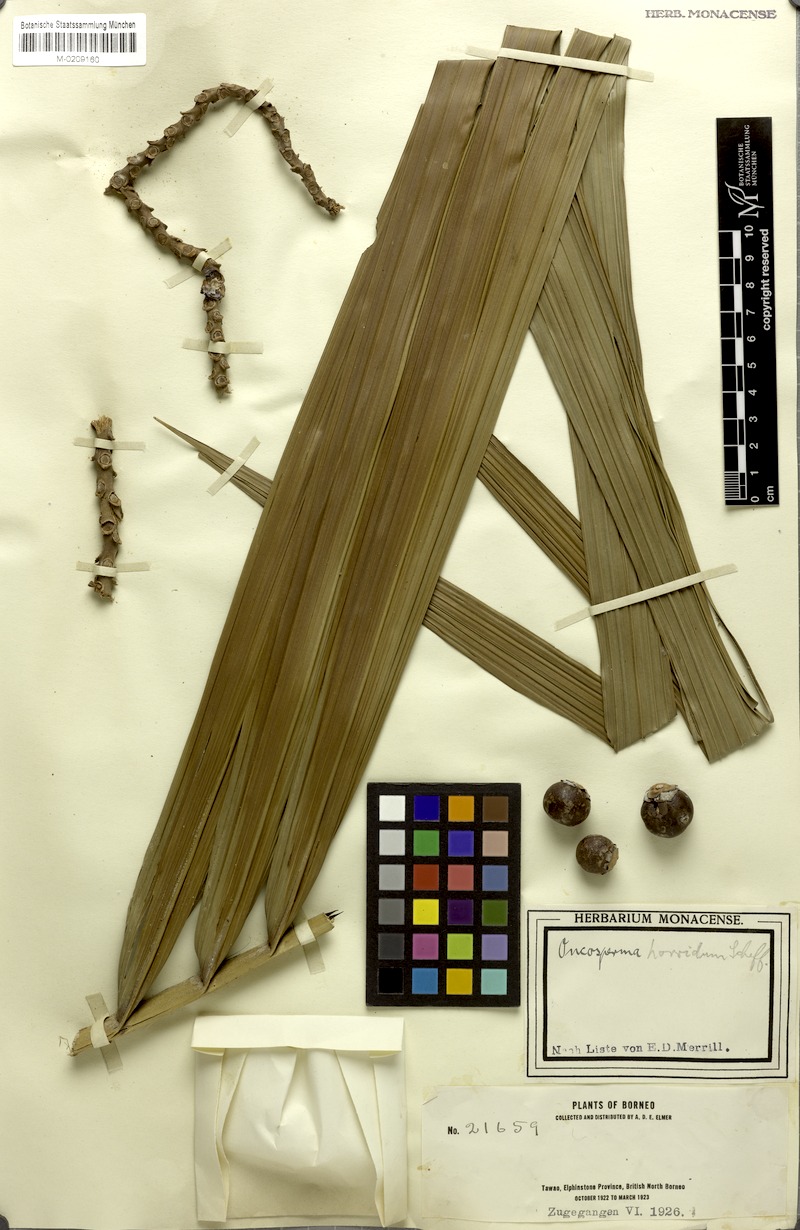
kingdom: Plantae
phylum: Tracheophyta
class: Liliopsida
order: Arecales
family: Arecaceae
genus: Oncosperma
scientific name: Oncosperma horridum
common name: Thorny palm
